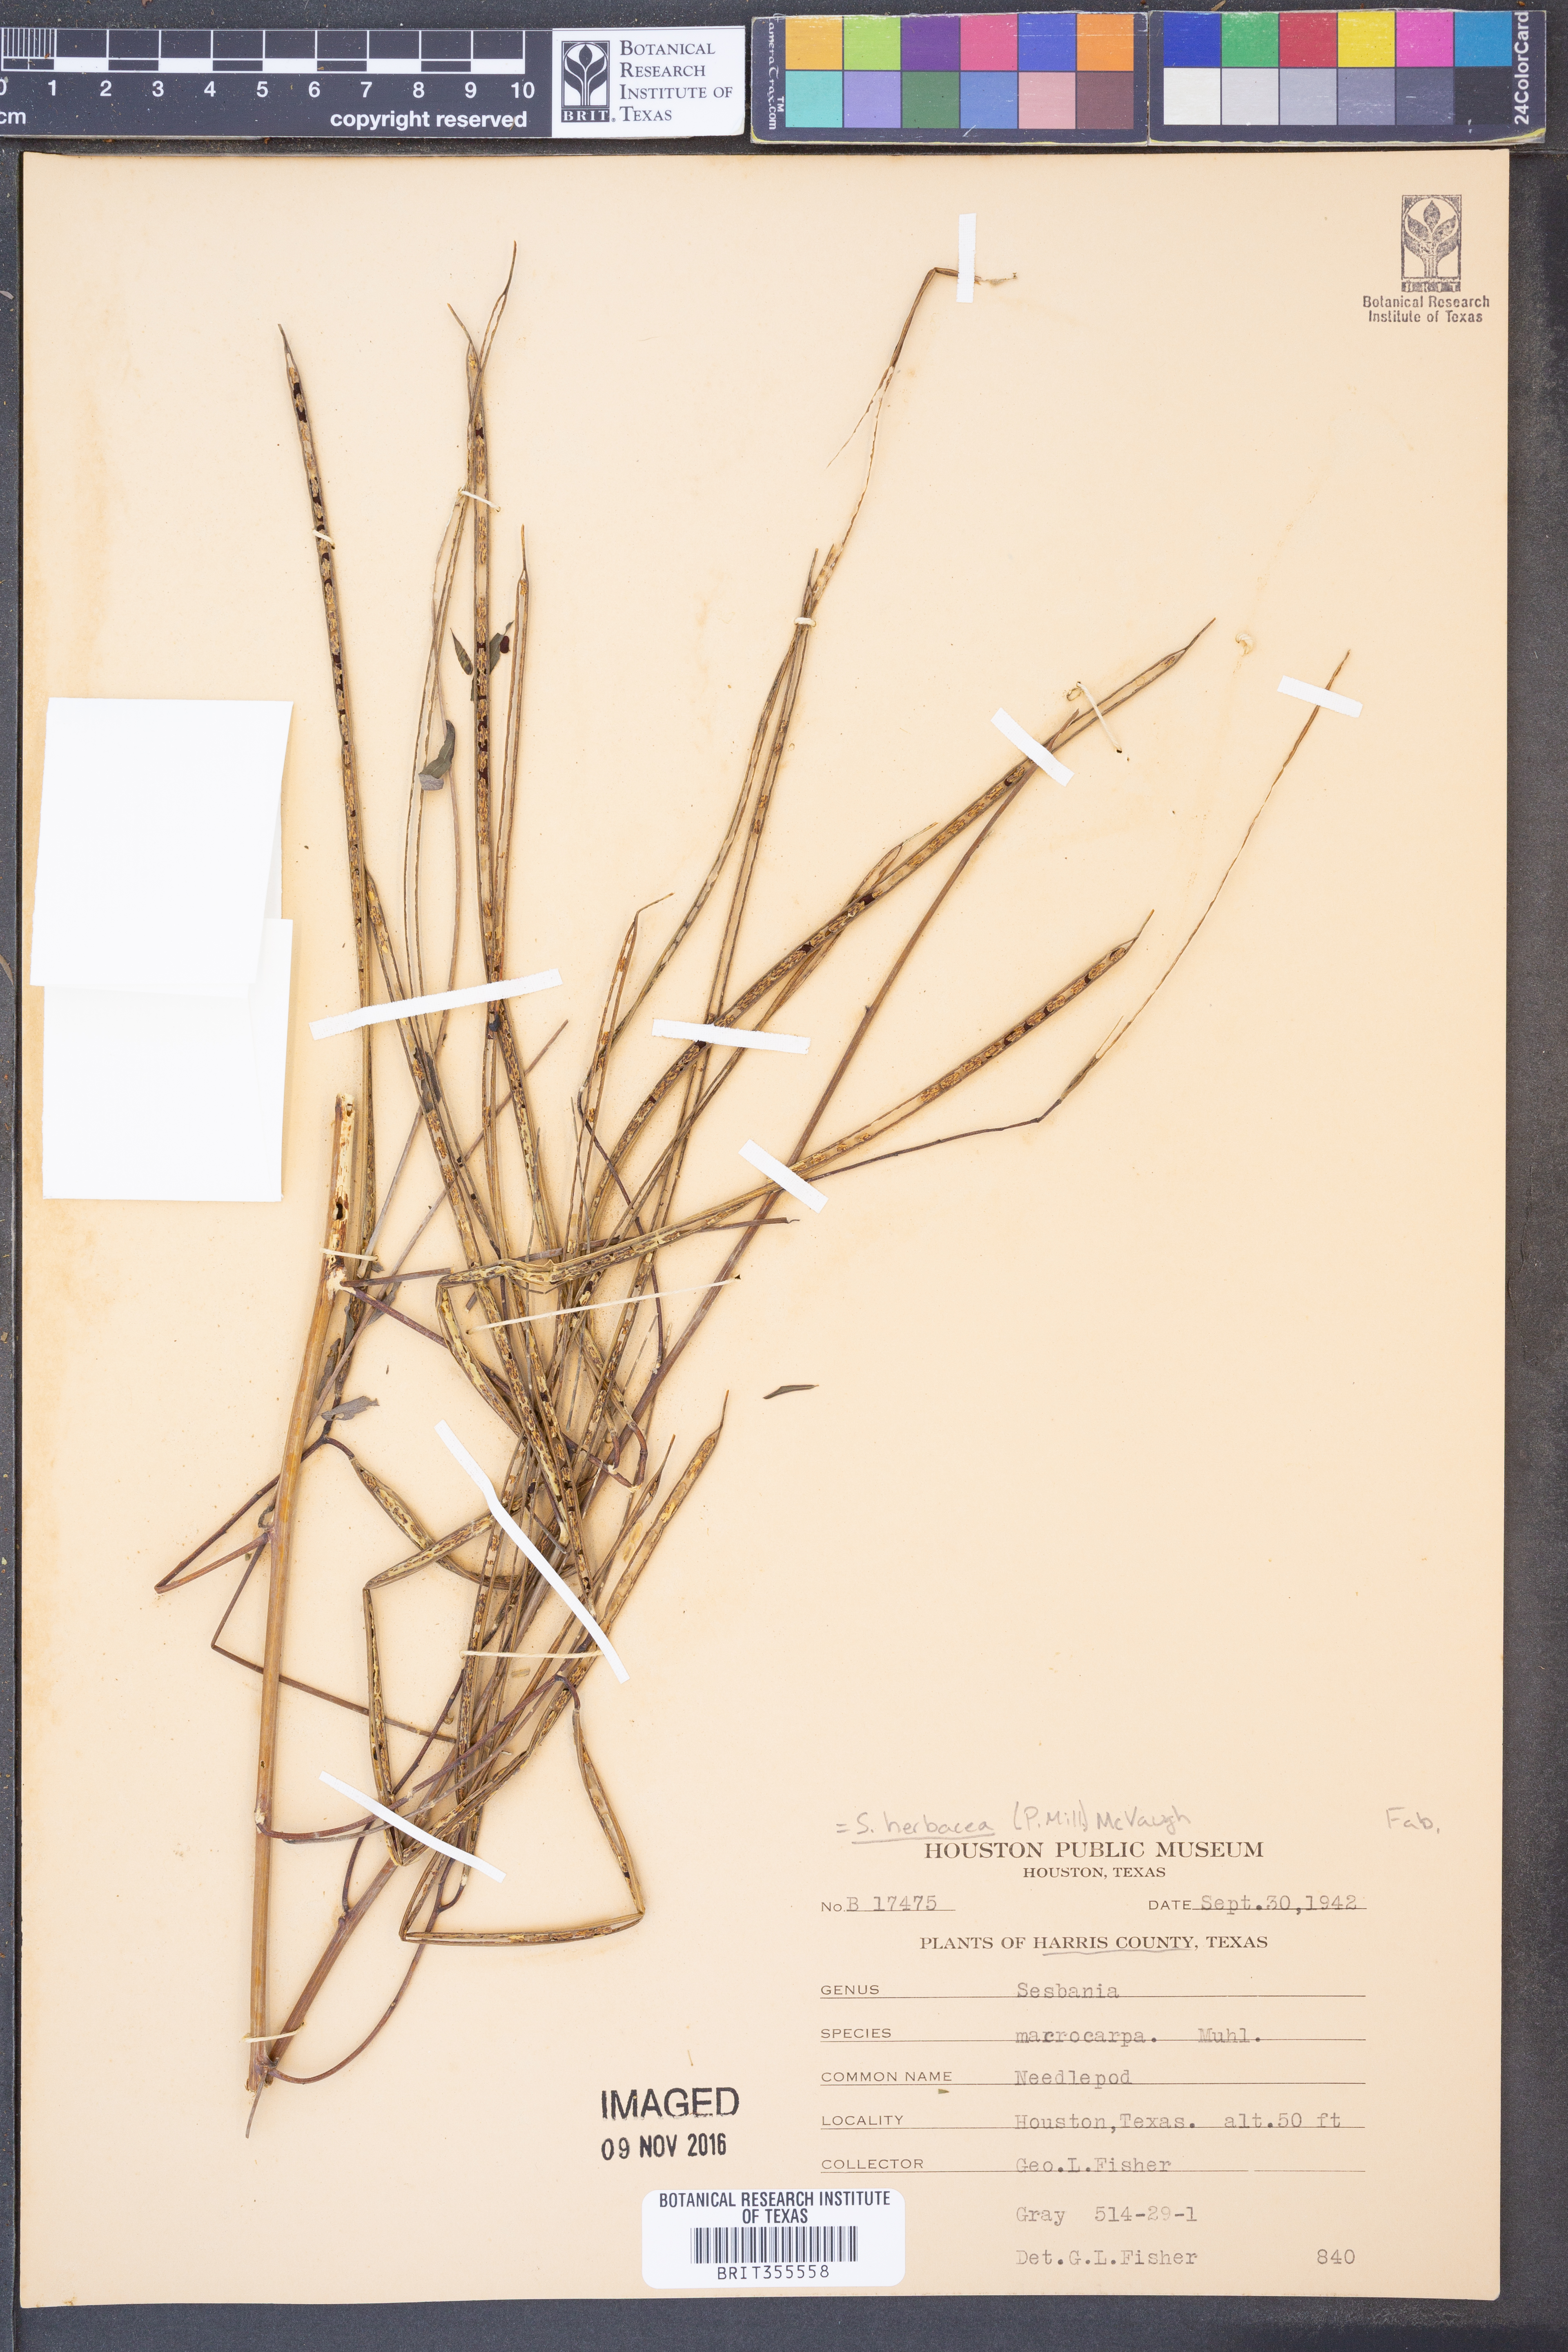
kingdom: Plantae
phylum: Tracheophyta
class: Magnoliopsida
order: Fabales
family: Fabaceae
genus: Sesbania
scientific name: Sesbania herbacea
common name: Bigpod sesbania
